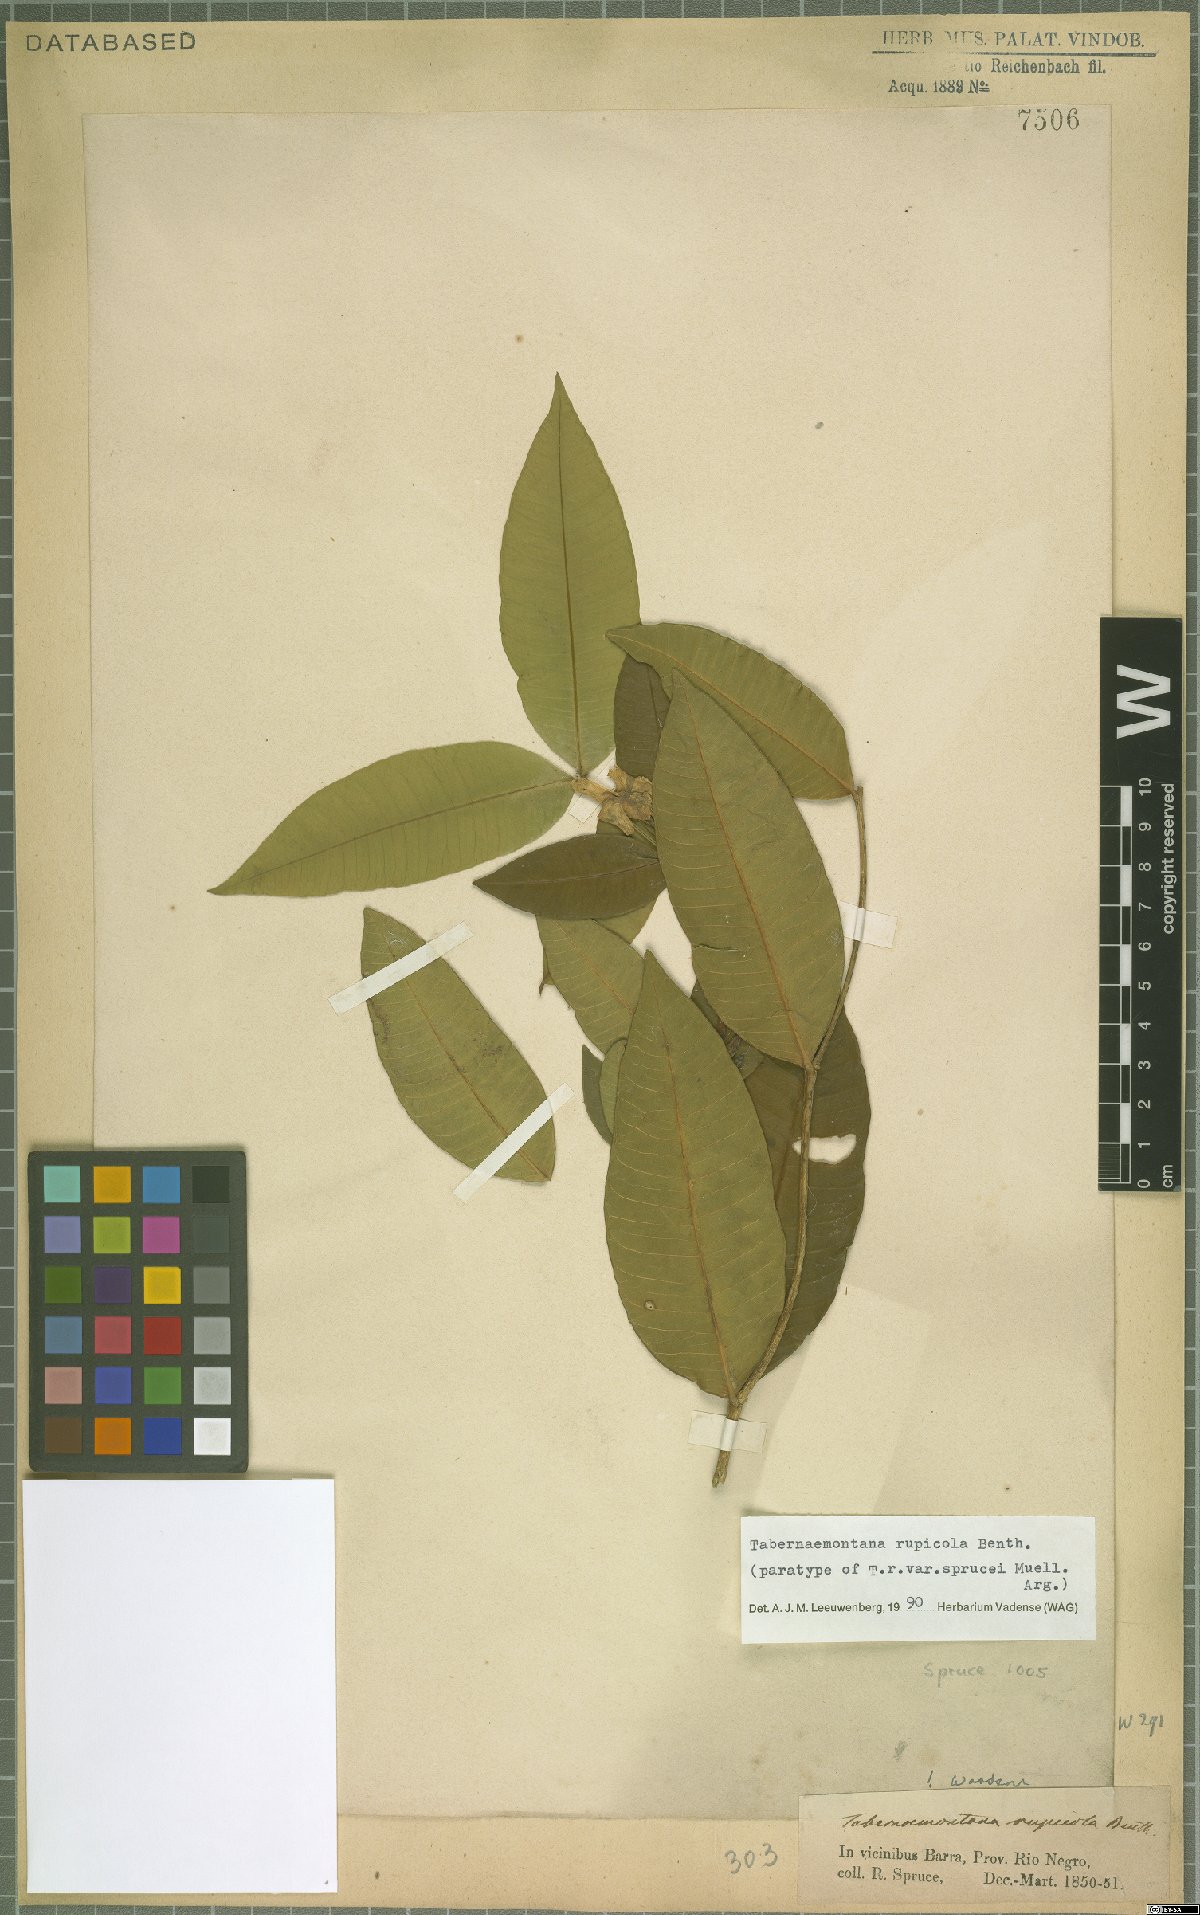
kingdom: Plantae
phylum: Tracheophyta
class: Magnoliopsida
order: Gentianales
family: Apocynaceae
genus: Tabernaemontana
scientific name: Tabernaemontana rupicola
